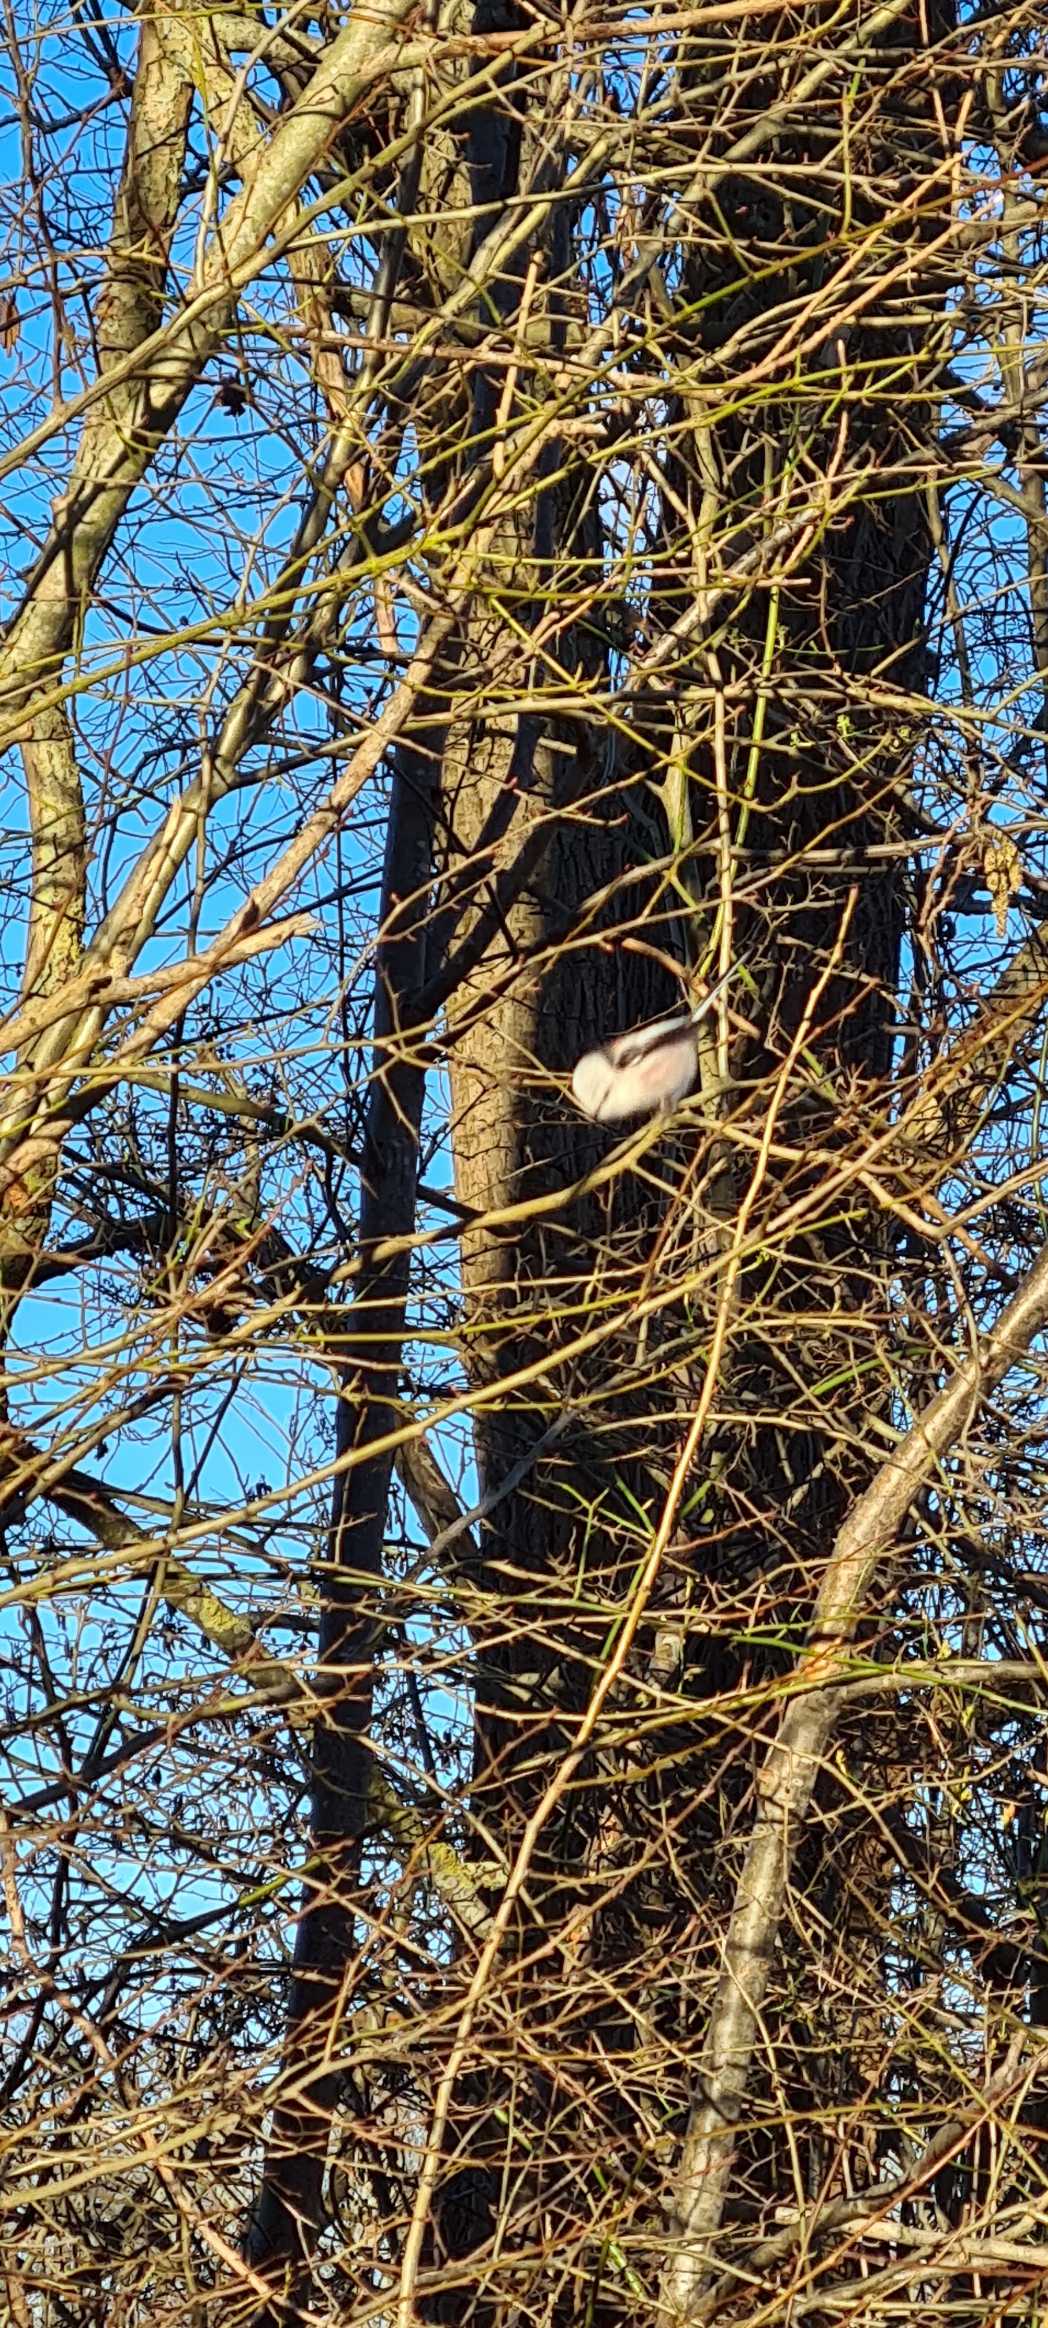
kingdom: Animalia
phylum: Chordata
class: Aves
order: Passeriformes
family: Aegithalidae
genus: Aegithalos
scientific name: Aegithalos caudatus
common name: Halemejse
